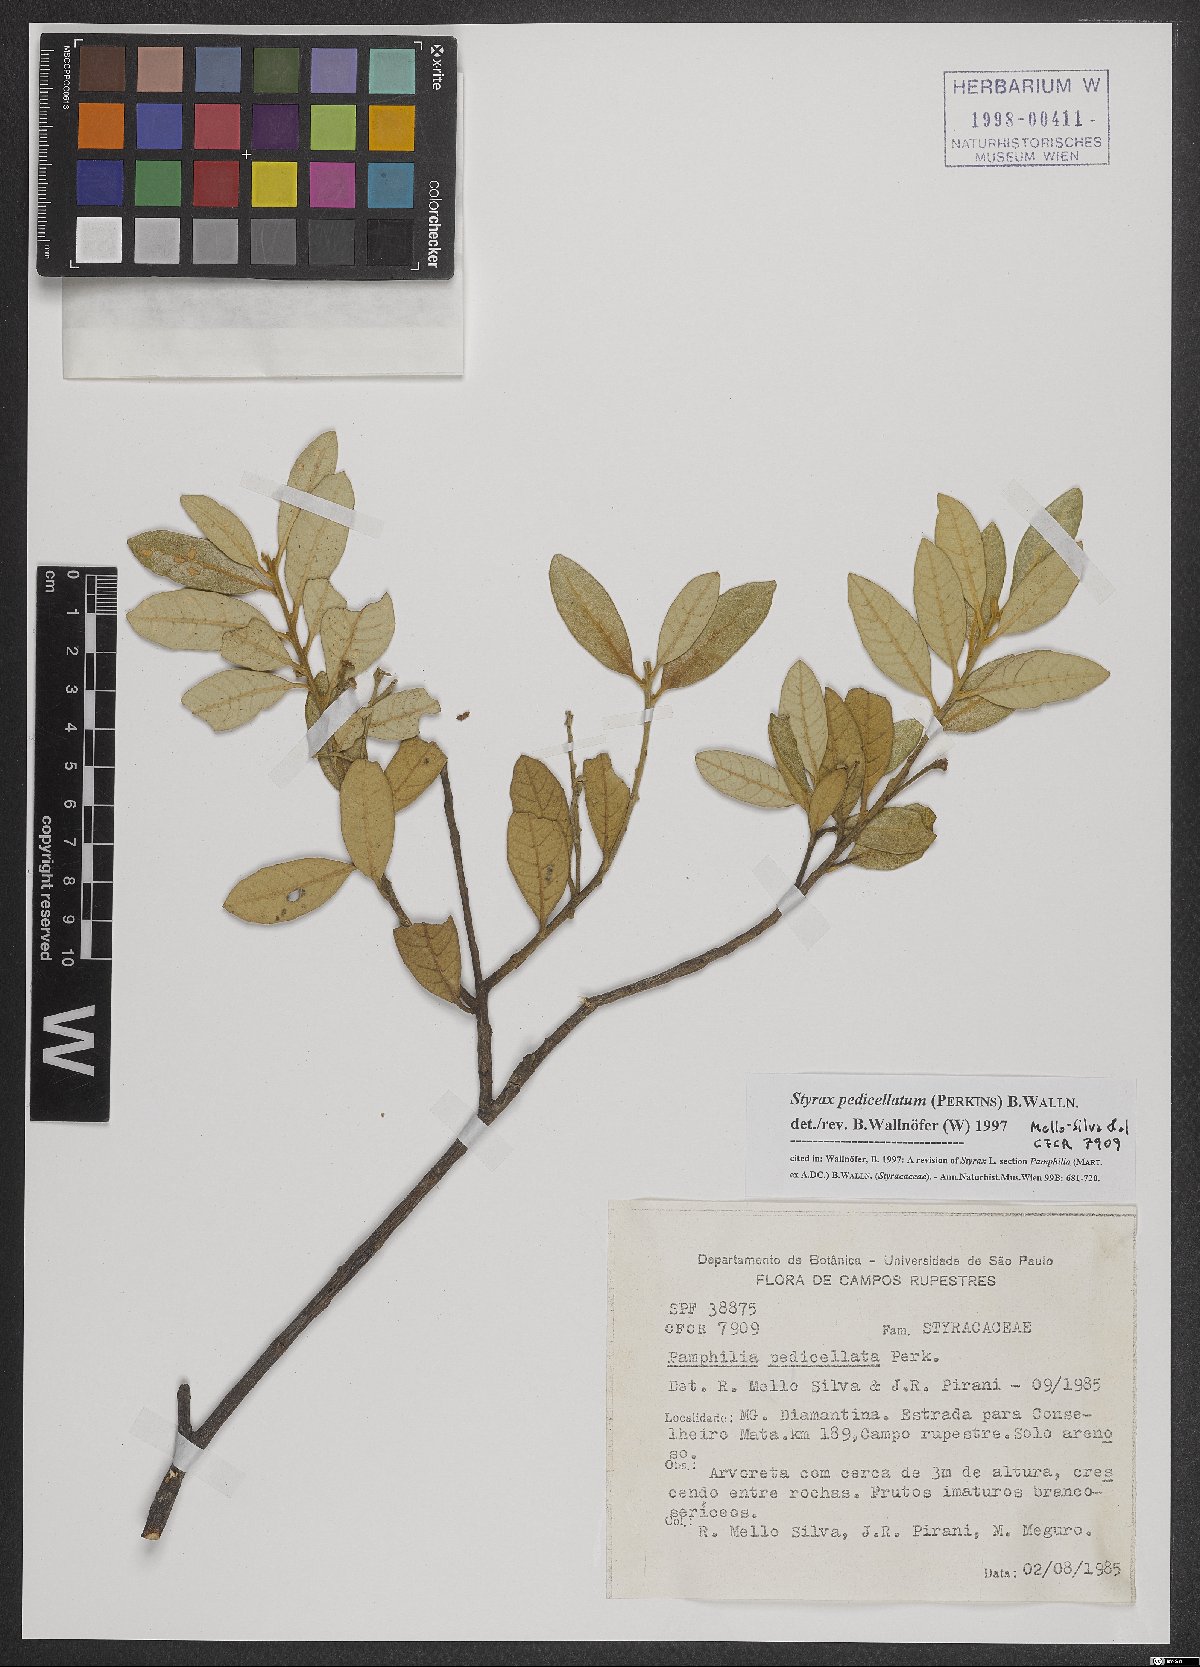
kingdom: Plantae
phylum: Tracheophyta
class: Magnoliopsida
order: Ericales
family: Styracaceae
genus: Styrax
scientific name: Styrax pedicellatus
